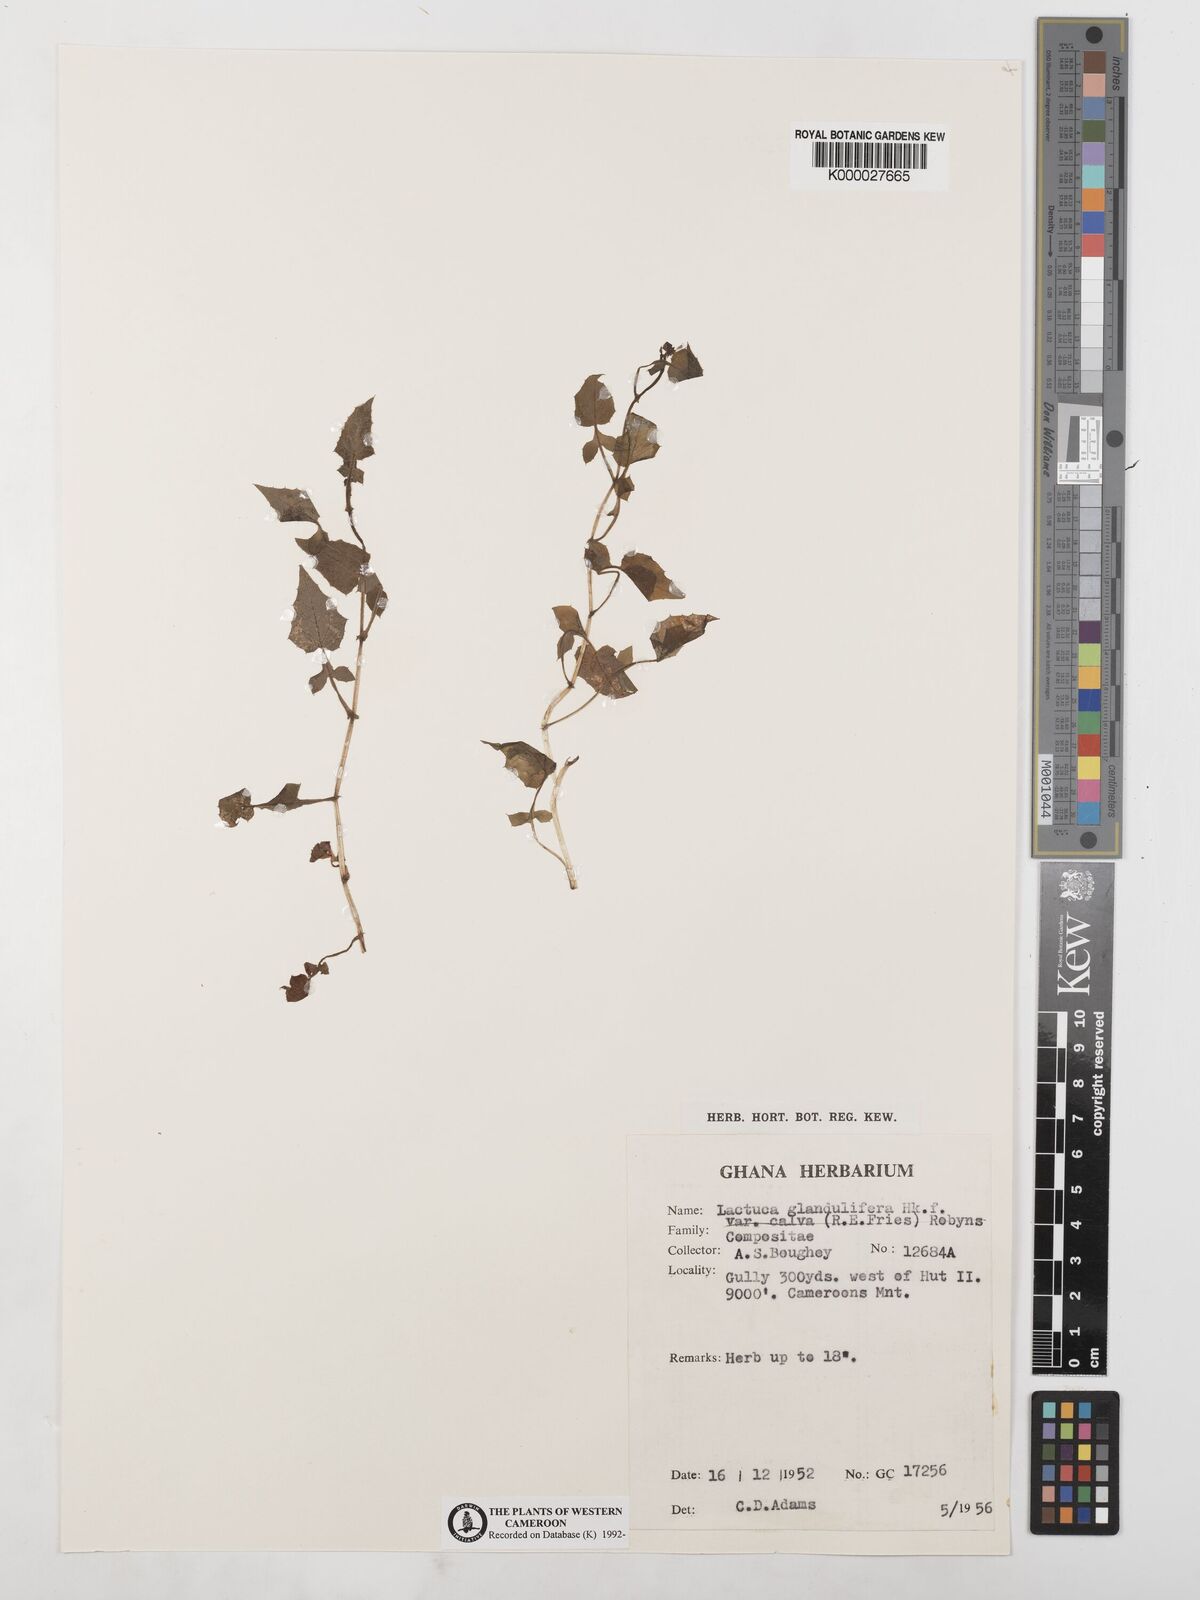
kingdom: Plantae
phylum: Tracheophyta
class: Magnoliopsida
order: Asterales
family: Asteraceae
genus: Lactuca
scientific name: Lactuca glandulifera
